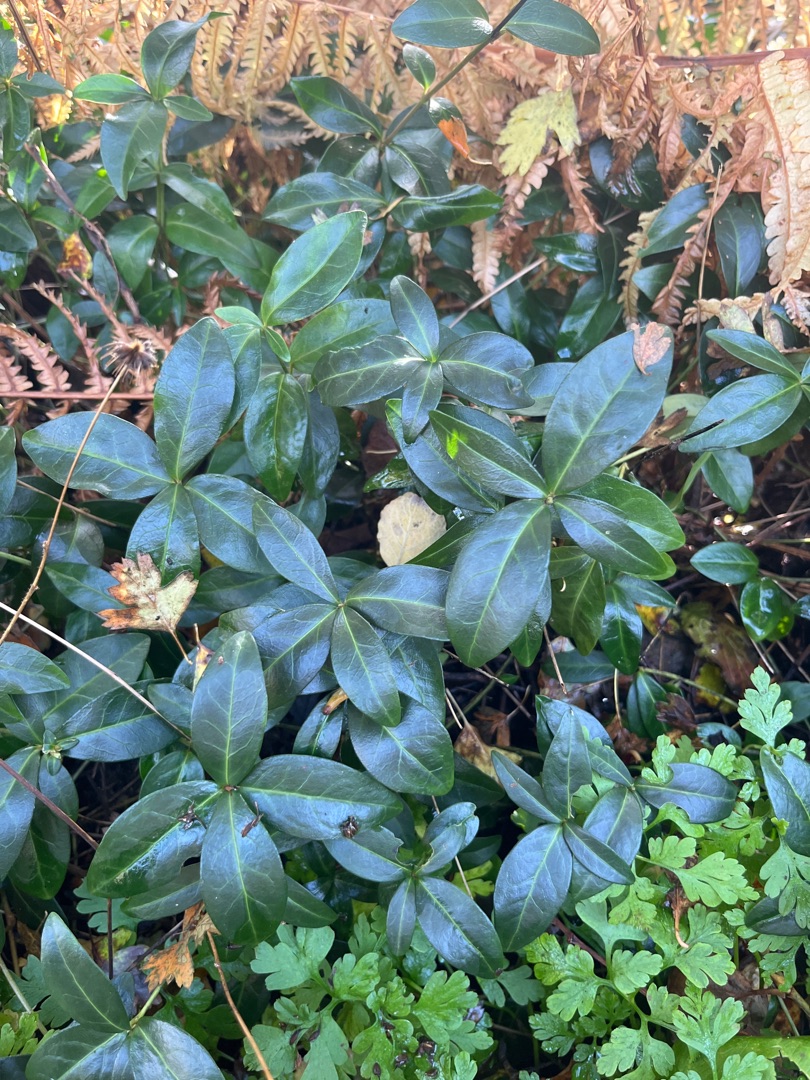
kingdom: Plantae
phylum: Tracheophyta
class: Magnoliopsida
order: Gentianales
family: Apocynaceae
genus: Vinca
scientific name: Vinca minor
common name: Liden singrøn
